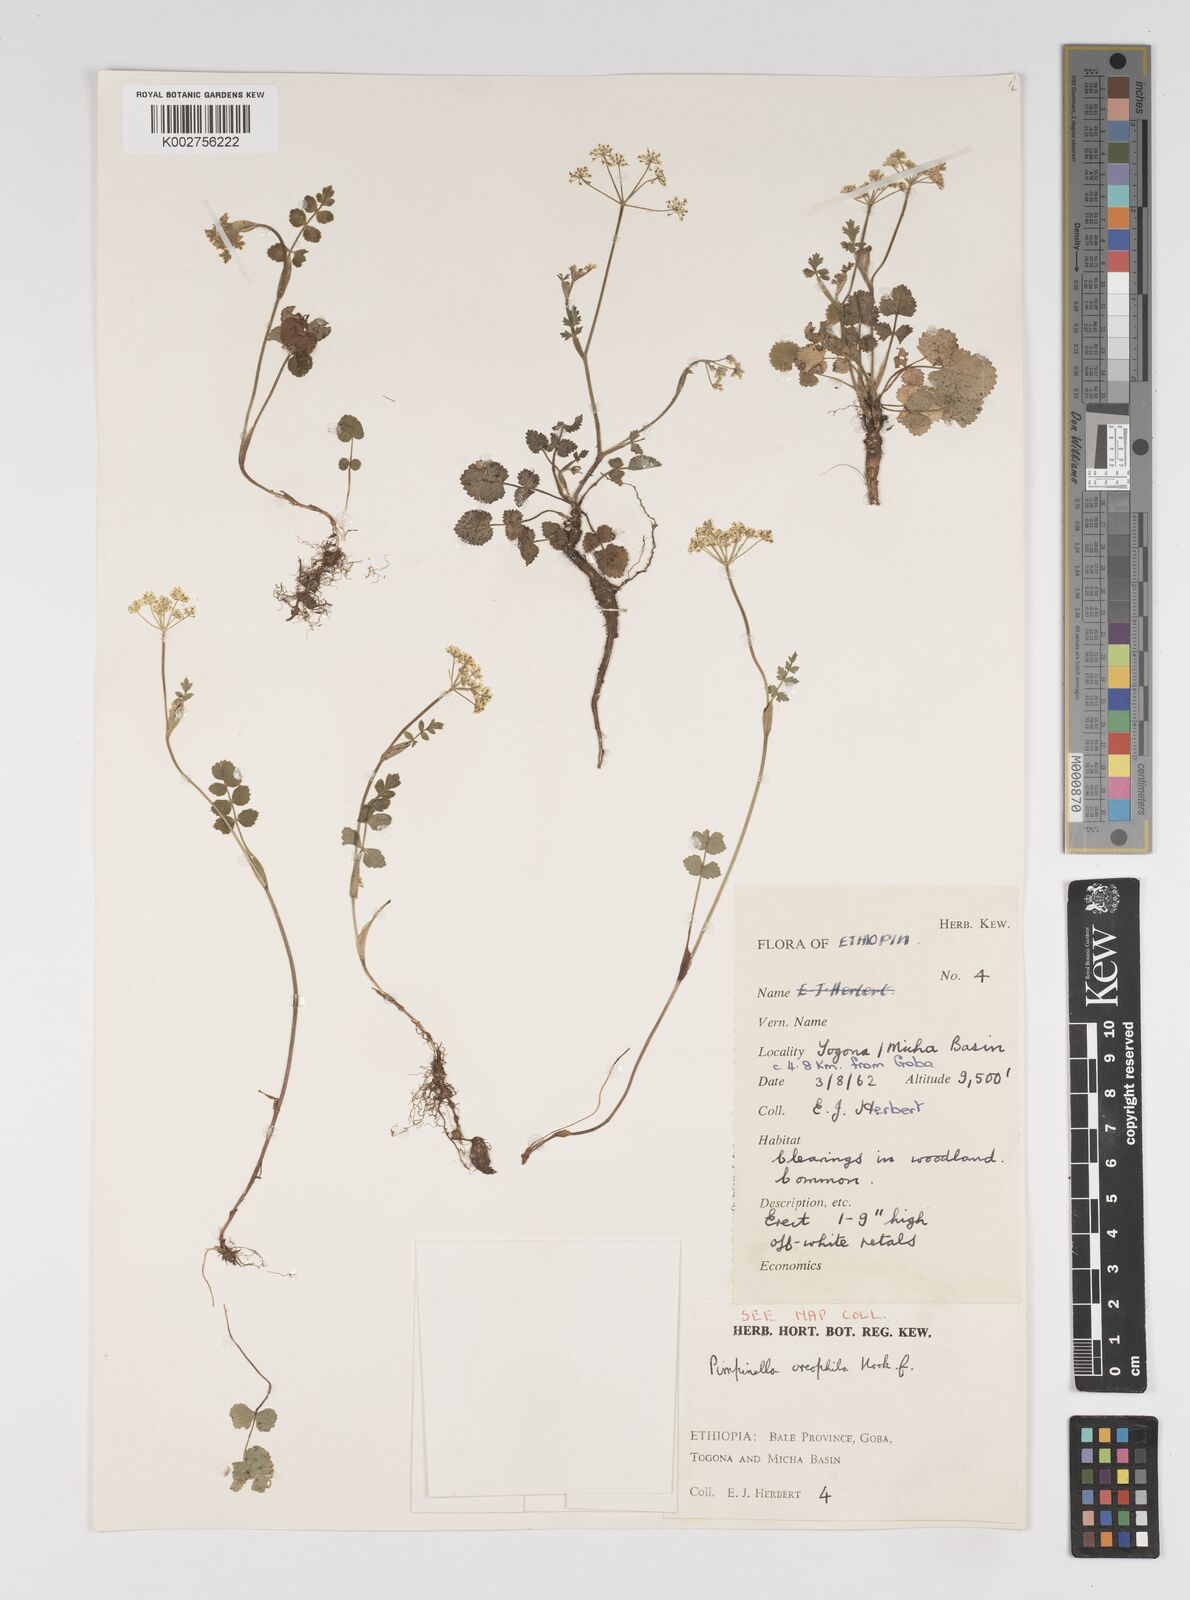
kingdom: Plantae
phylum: Tracheophyta
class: Magnoliopsida
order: Apiales
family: Apiaceae
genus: Pimpinella
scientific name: Pimpinella oreophila
